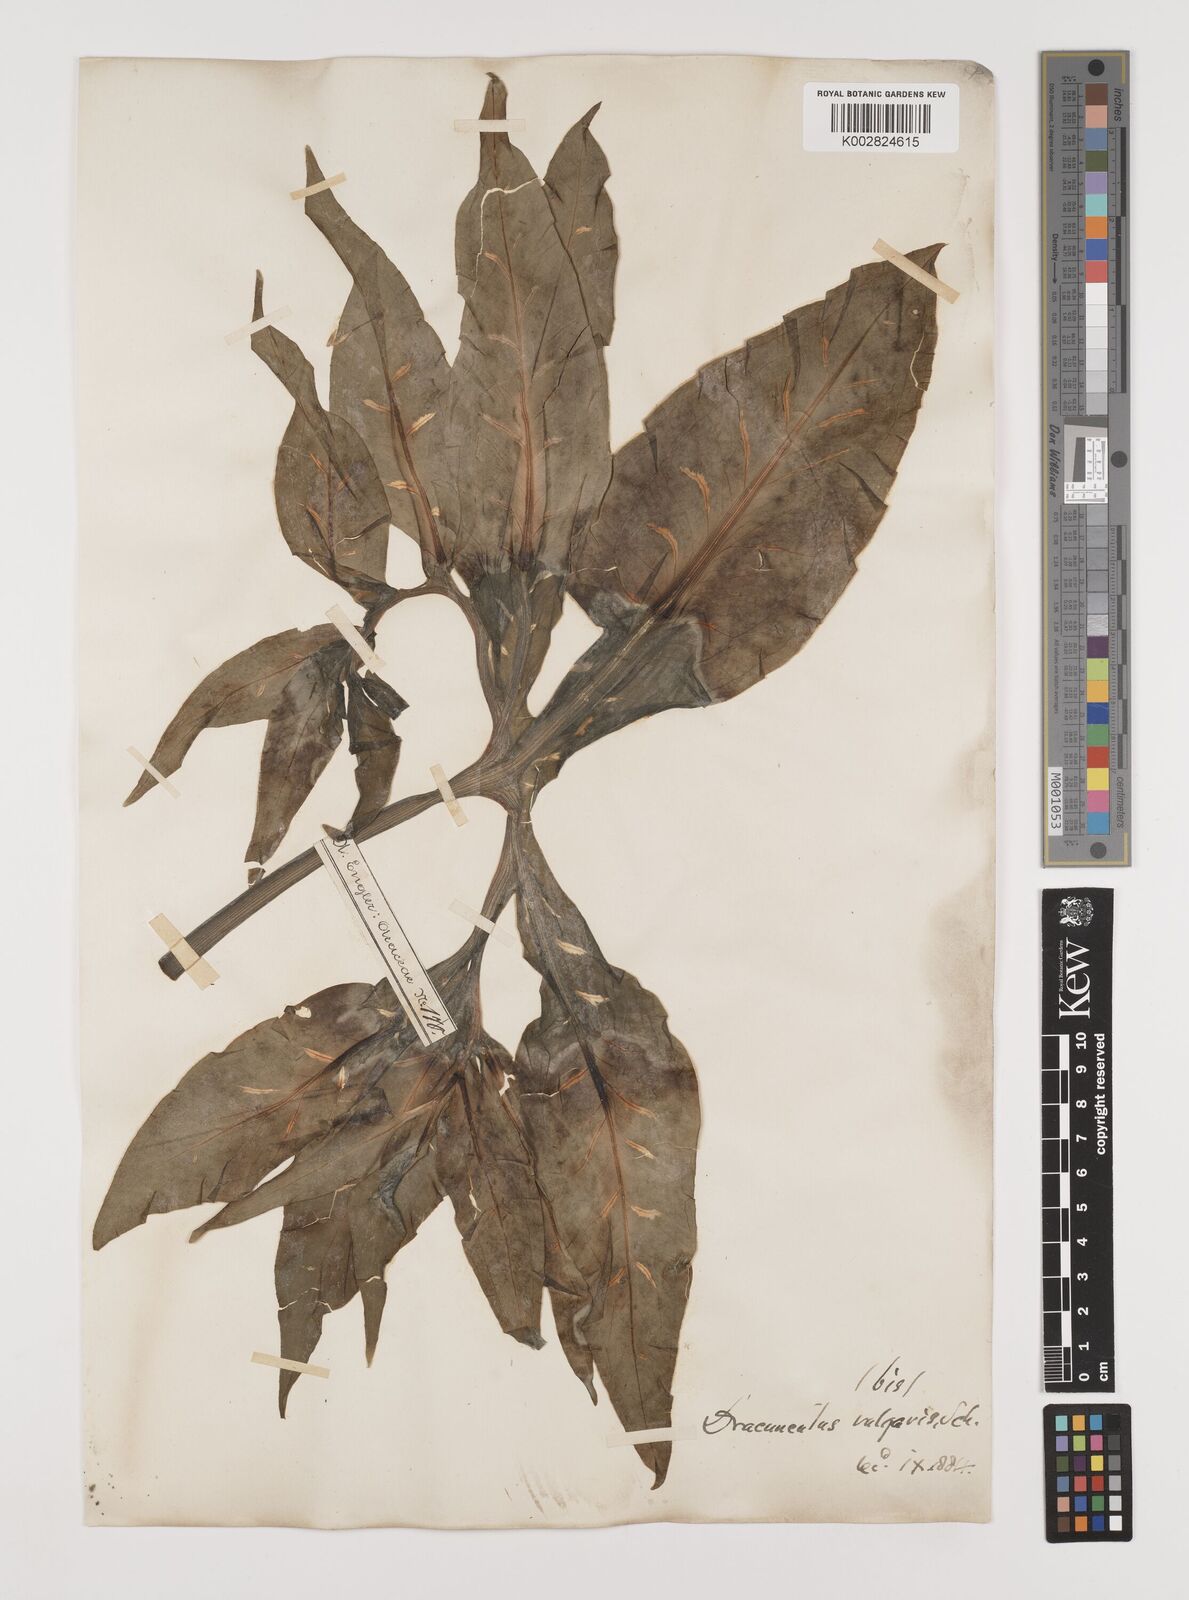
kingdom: Plantae
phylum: Tracheophyta
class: Liliopsida
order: Alismatales
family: Araceae
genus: Dracunculus
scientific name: Dracunculus vulgaris
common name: Dragon arum
